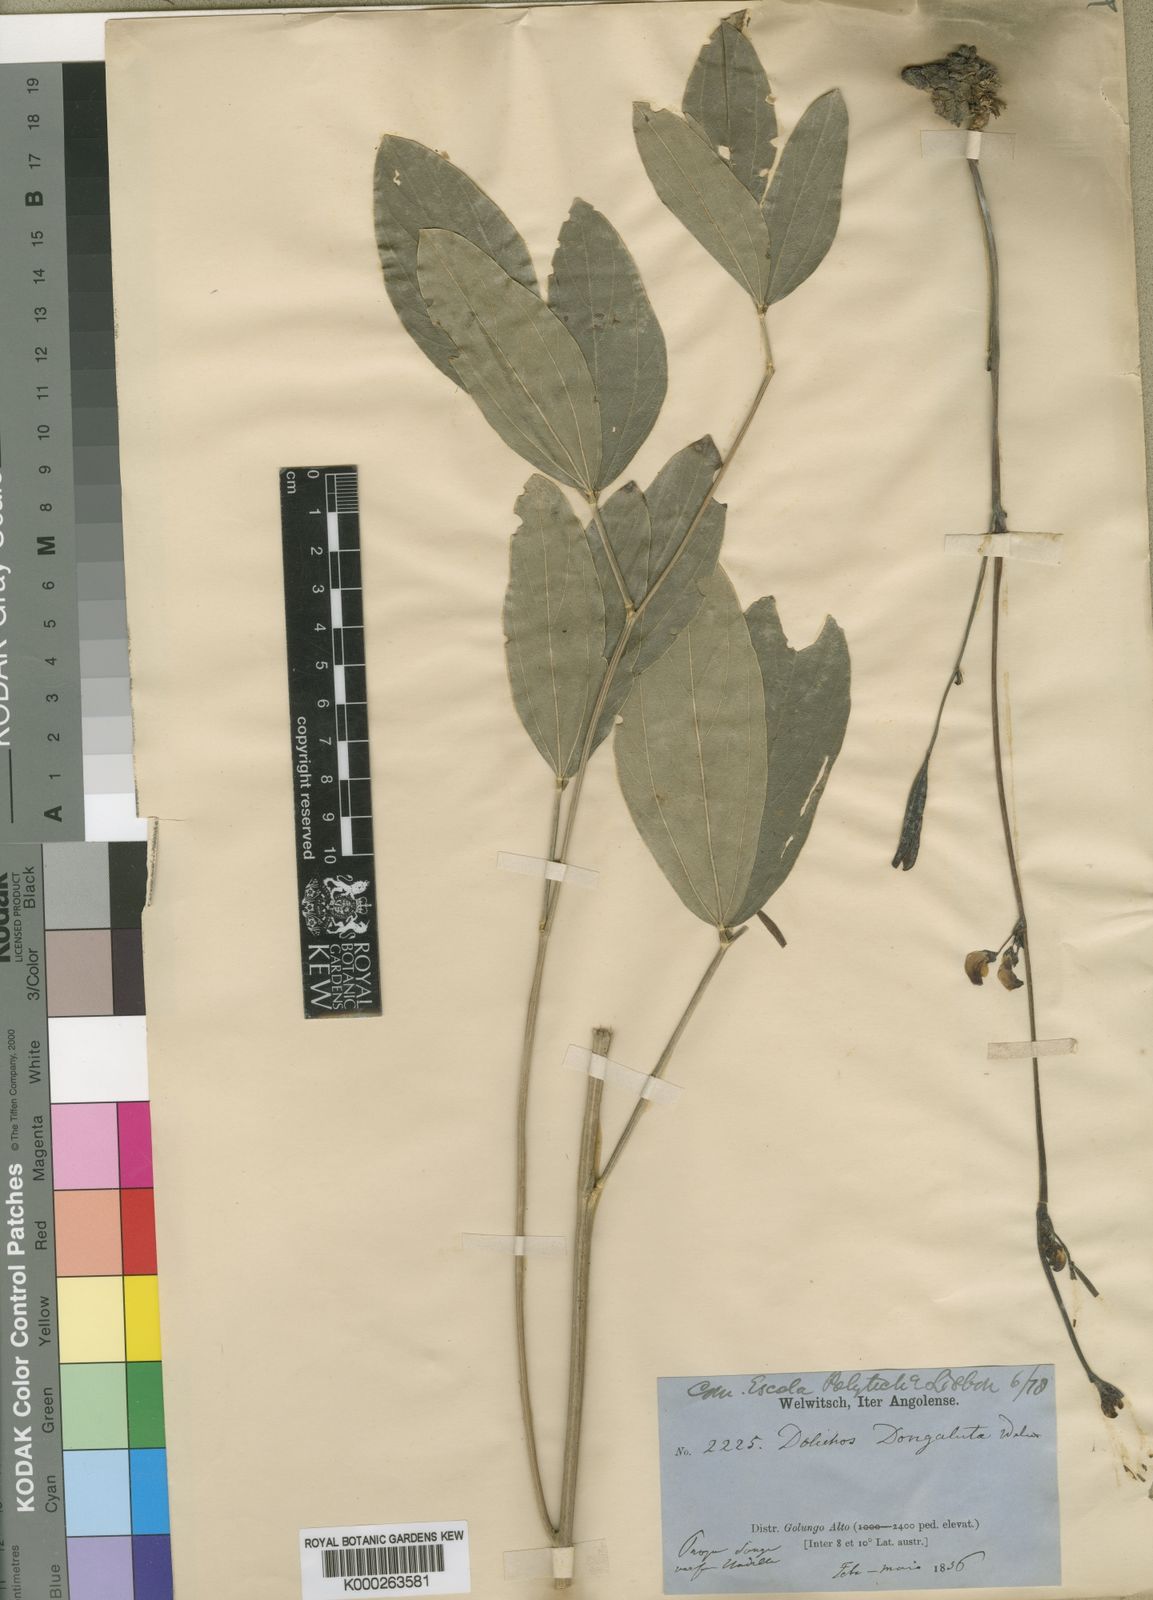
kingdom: Plantae
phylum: Tracheophyta
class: Magnoliopsida
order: Fabales
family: Fabaceae
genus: Dolichos
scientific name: Dolichos dongaluta
